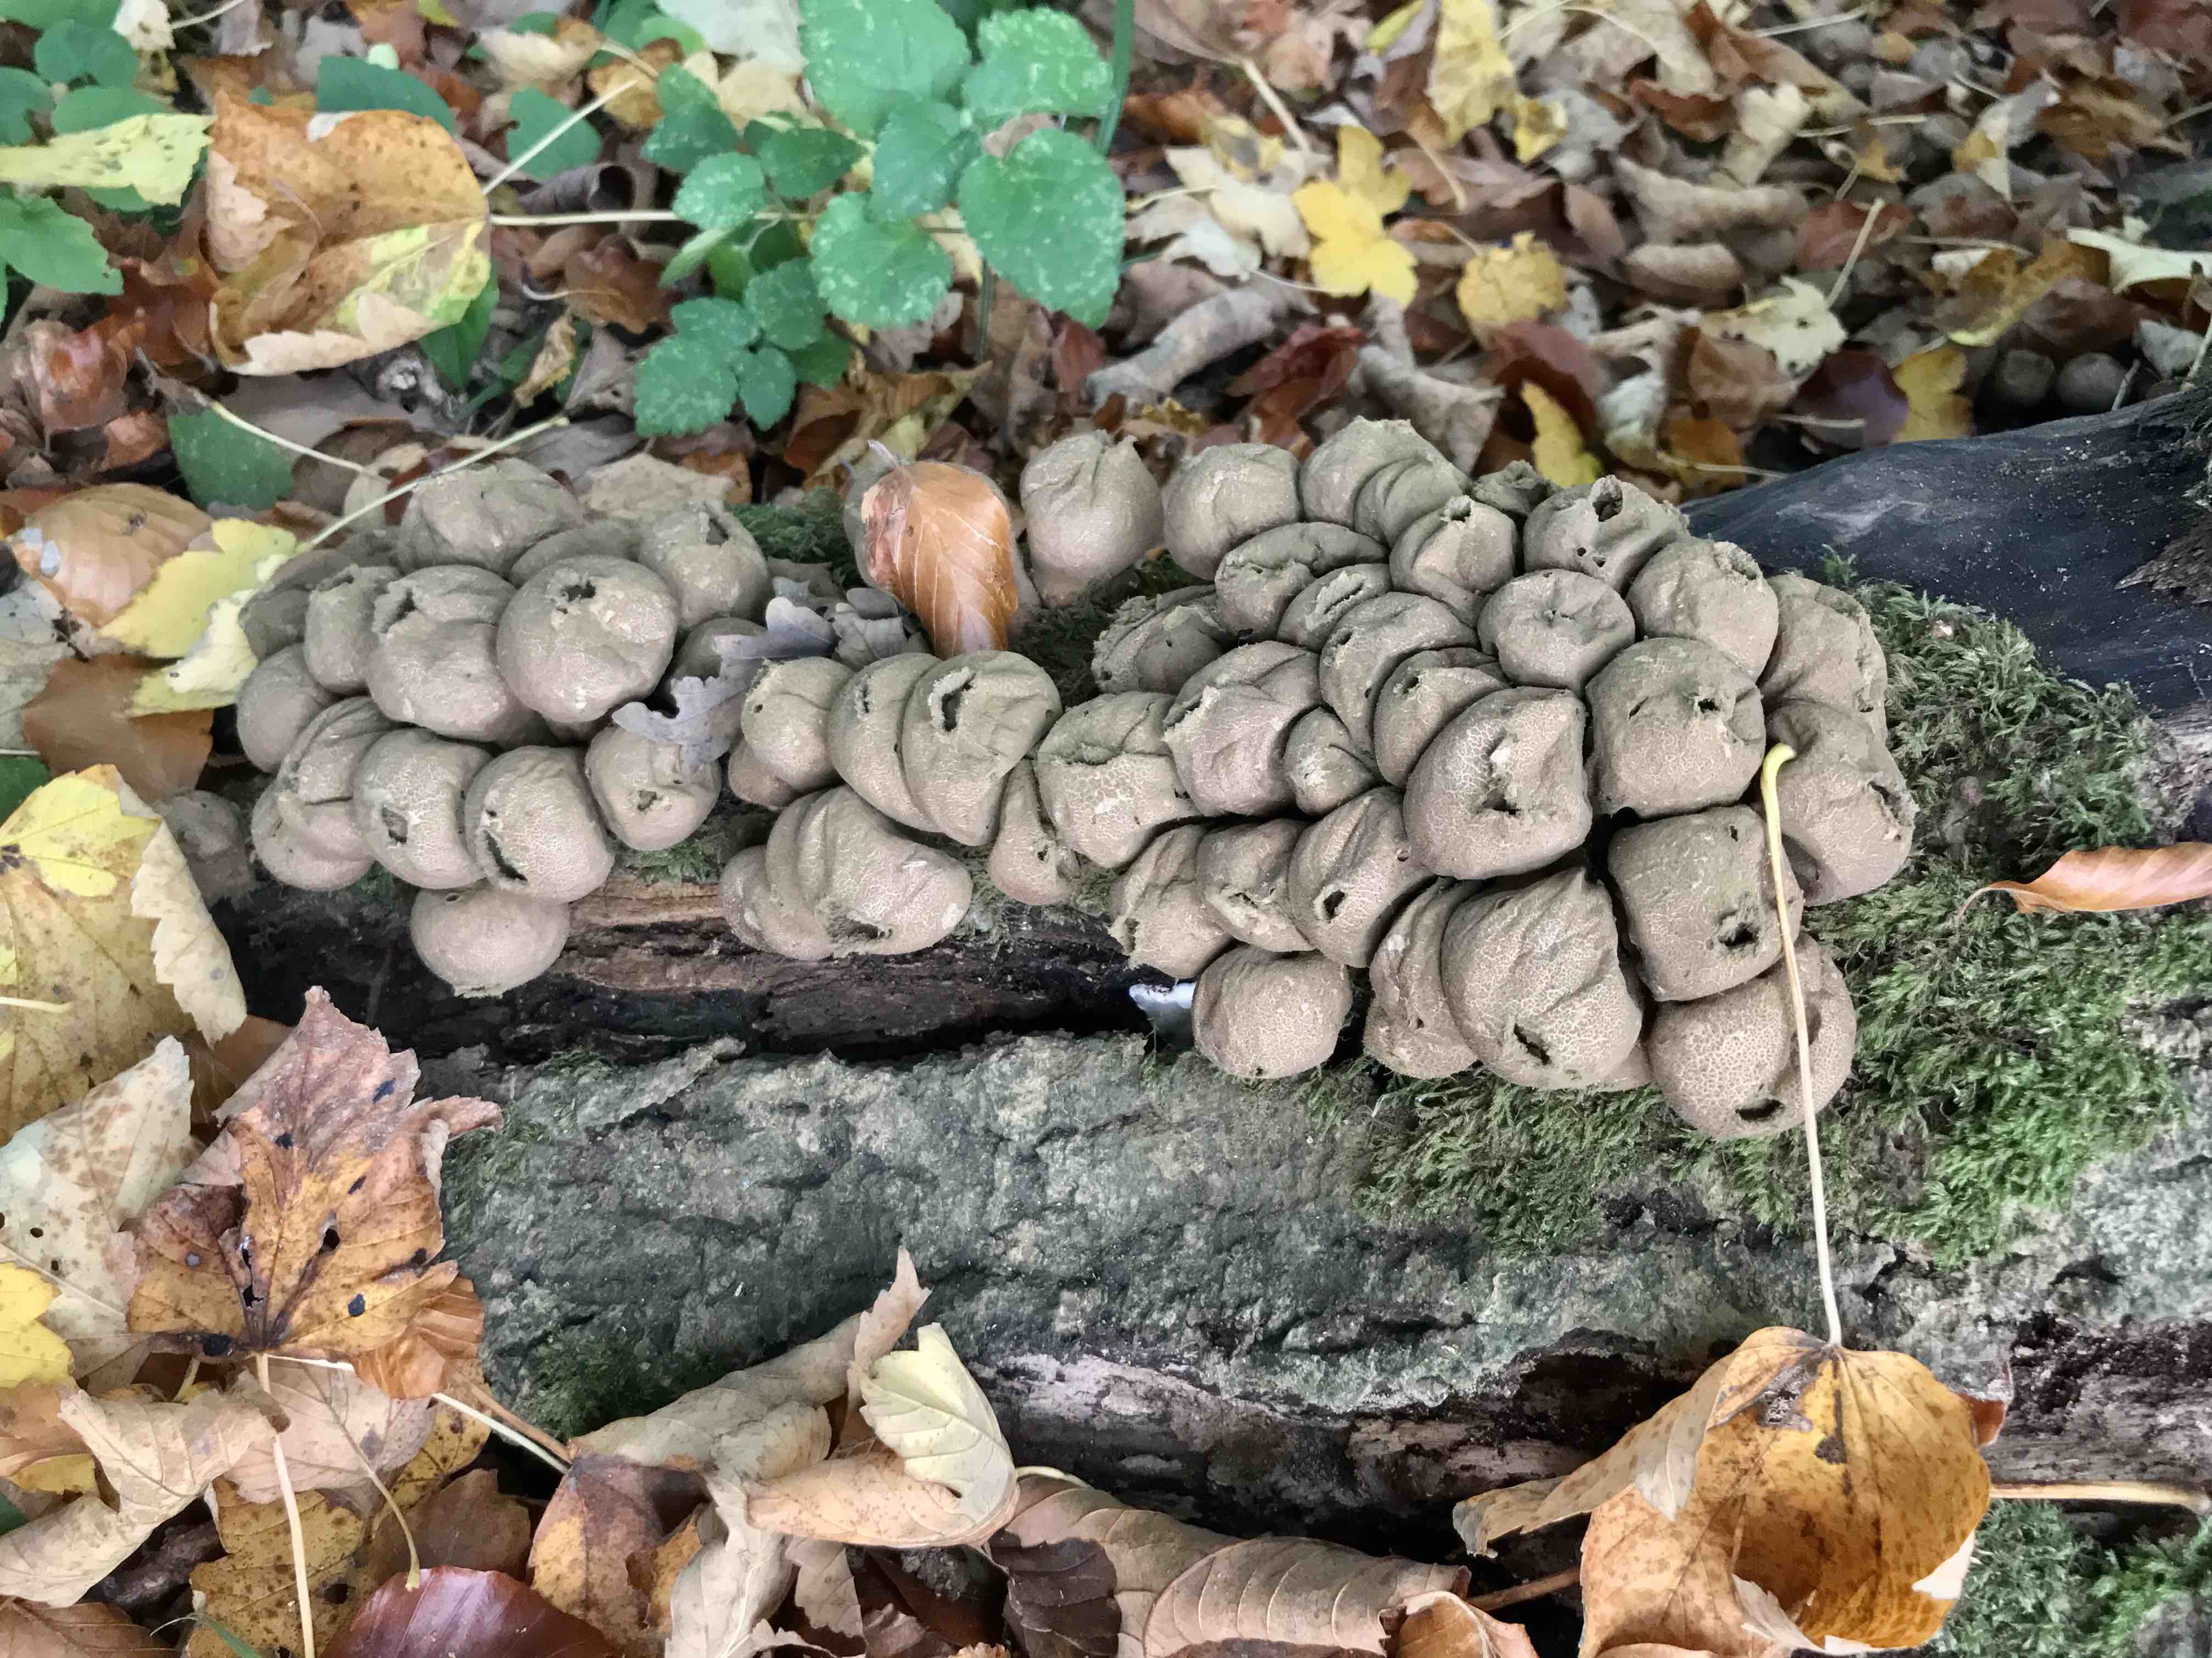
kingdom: Fungi
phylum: Basidiomycota
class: Agaricomycetes
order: Agaricales
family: Lycoperdaceae
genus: Apioperdon
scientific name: Apioperdon pyriforme
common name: pære-støvbold
